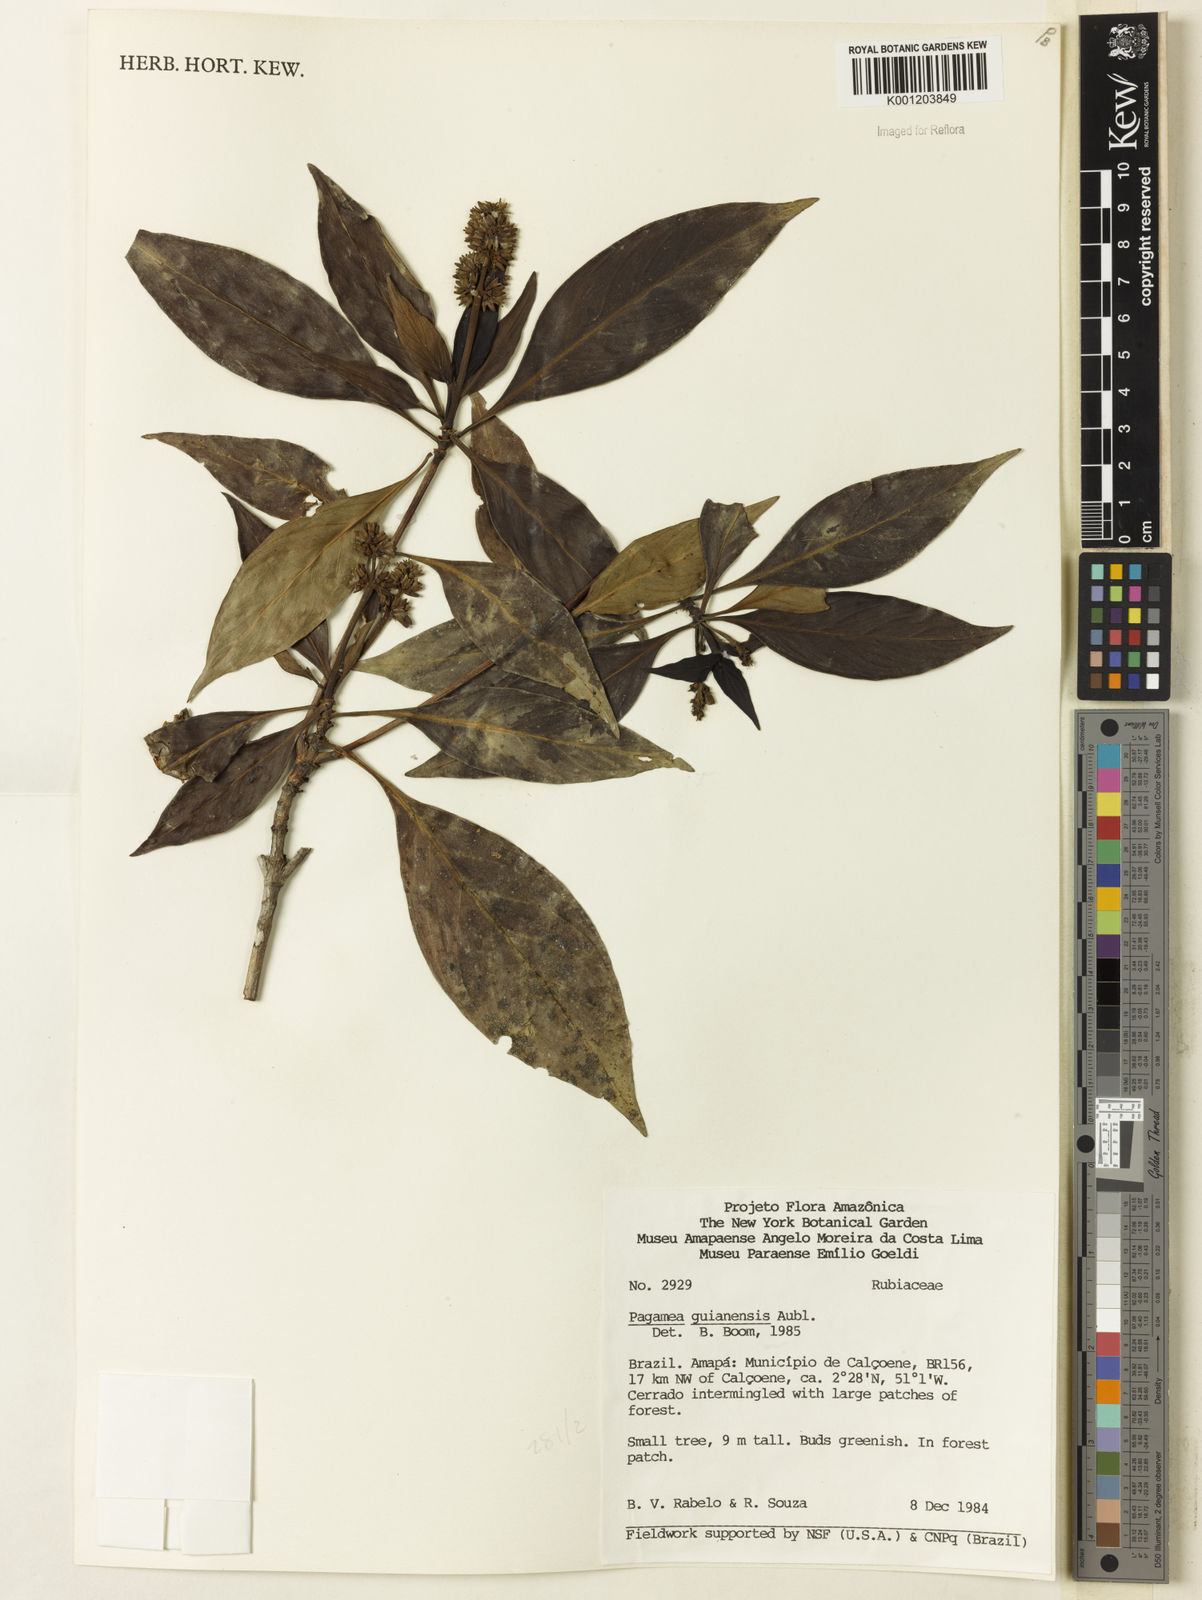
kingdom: Plantae
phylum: Tracheophyta
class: Magnoliopsida
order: Gentianales
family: Rubiaceae
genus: Pagamea
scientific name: Pagamea guianensis
